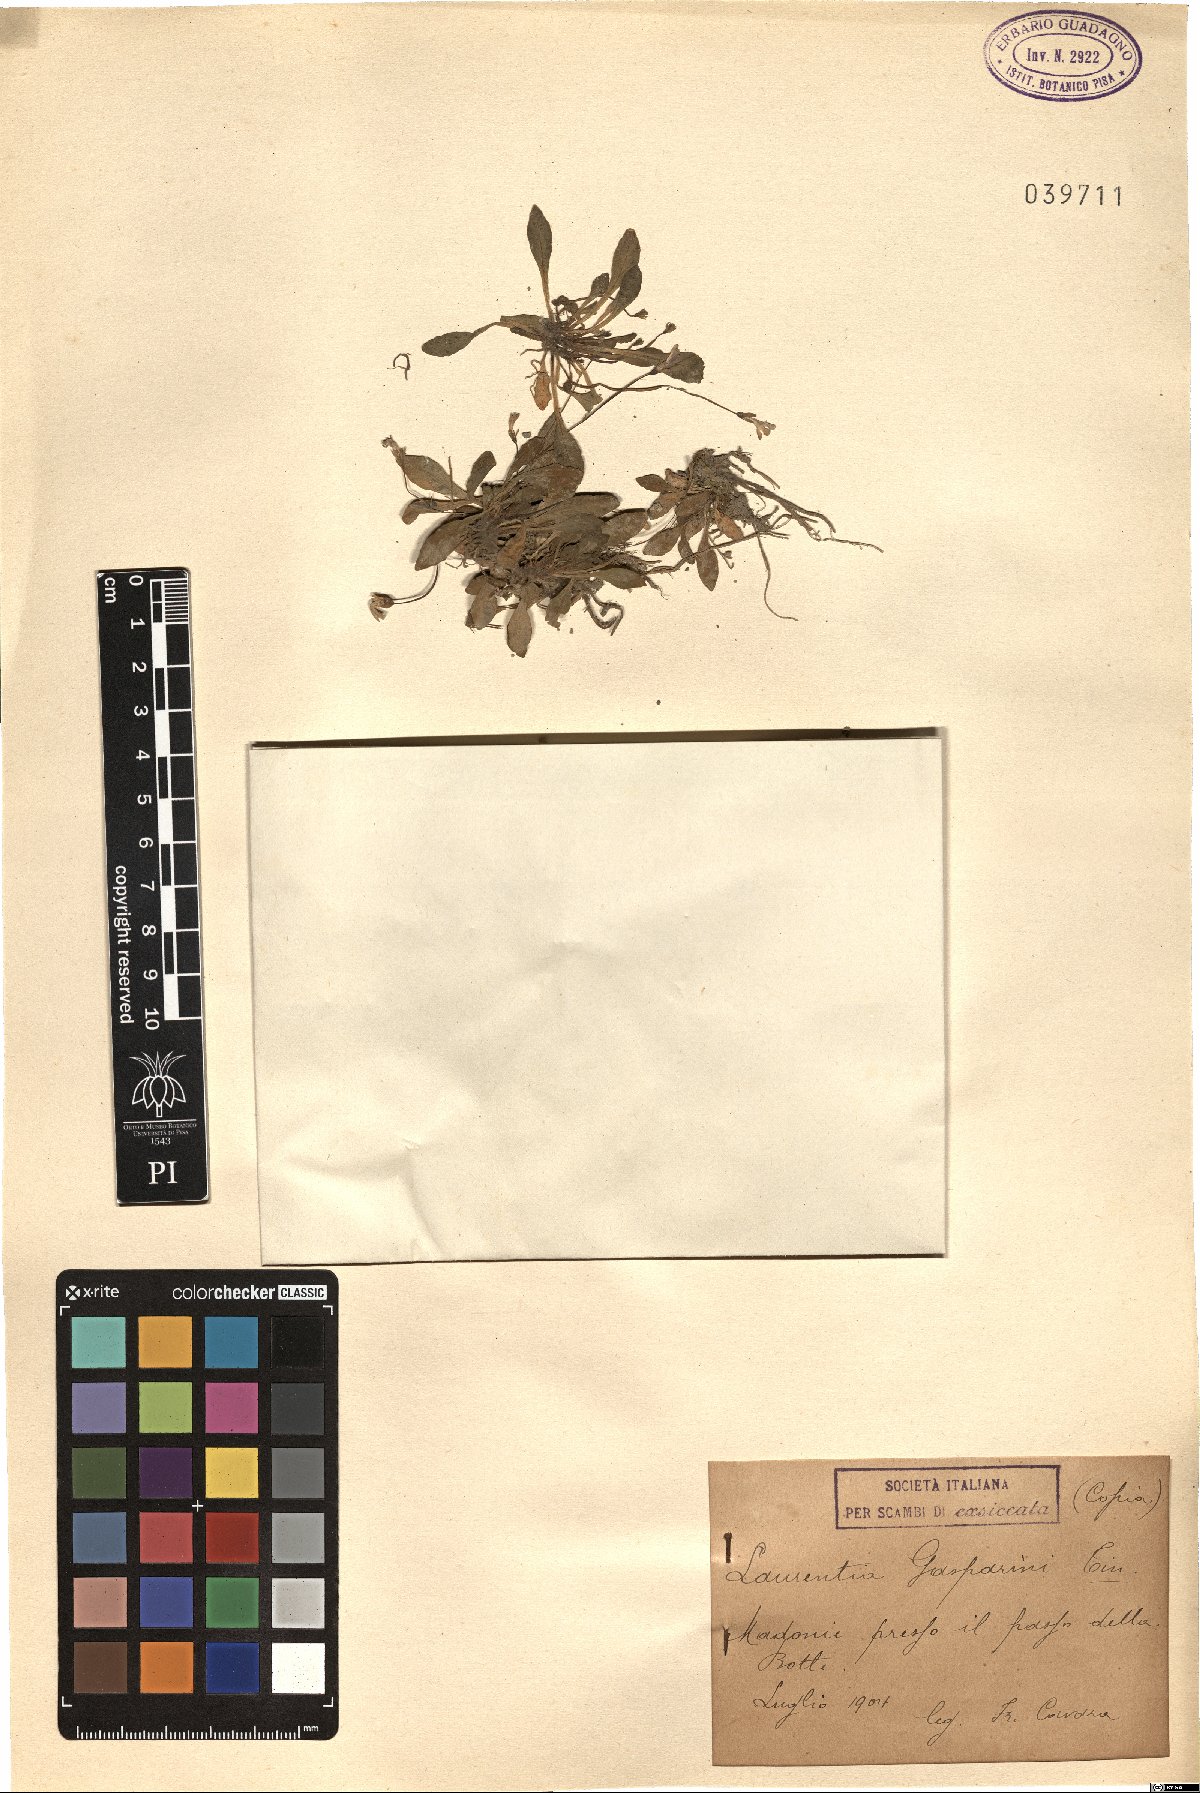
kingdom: Plantae
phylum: Tracheophyta
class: Magnoliopsida
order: Asterales
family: Campanulaceae
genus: Solenopsis
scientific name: Solenopsis laurentia
